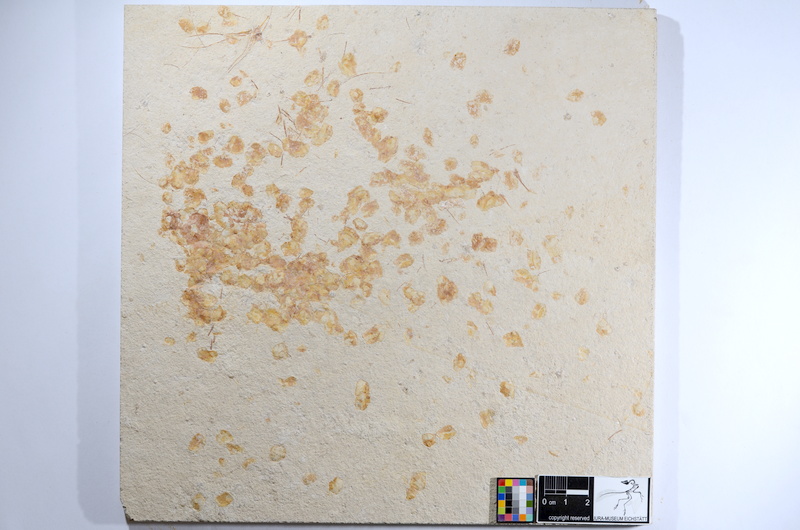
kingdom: Animalia
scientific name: Animalia
